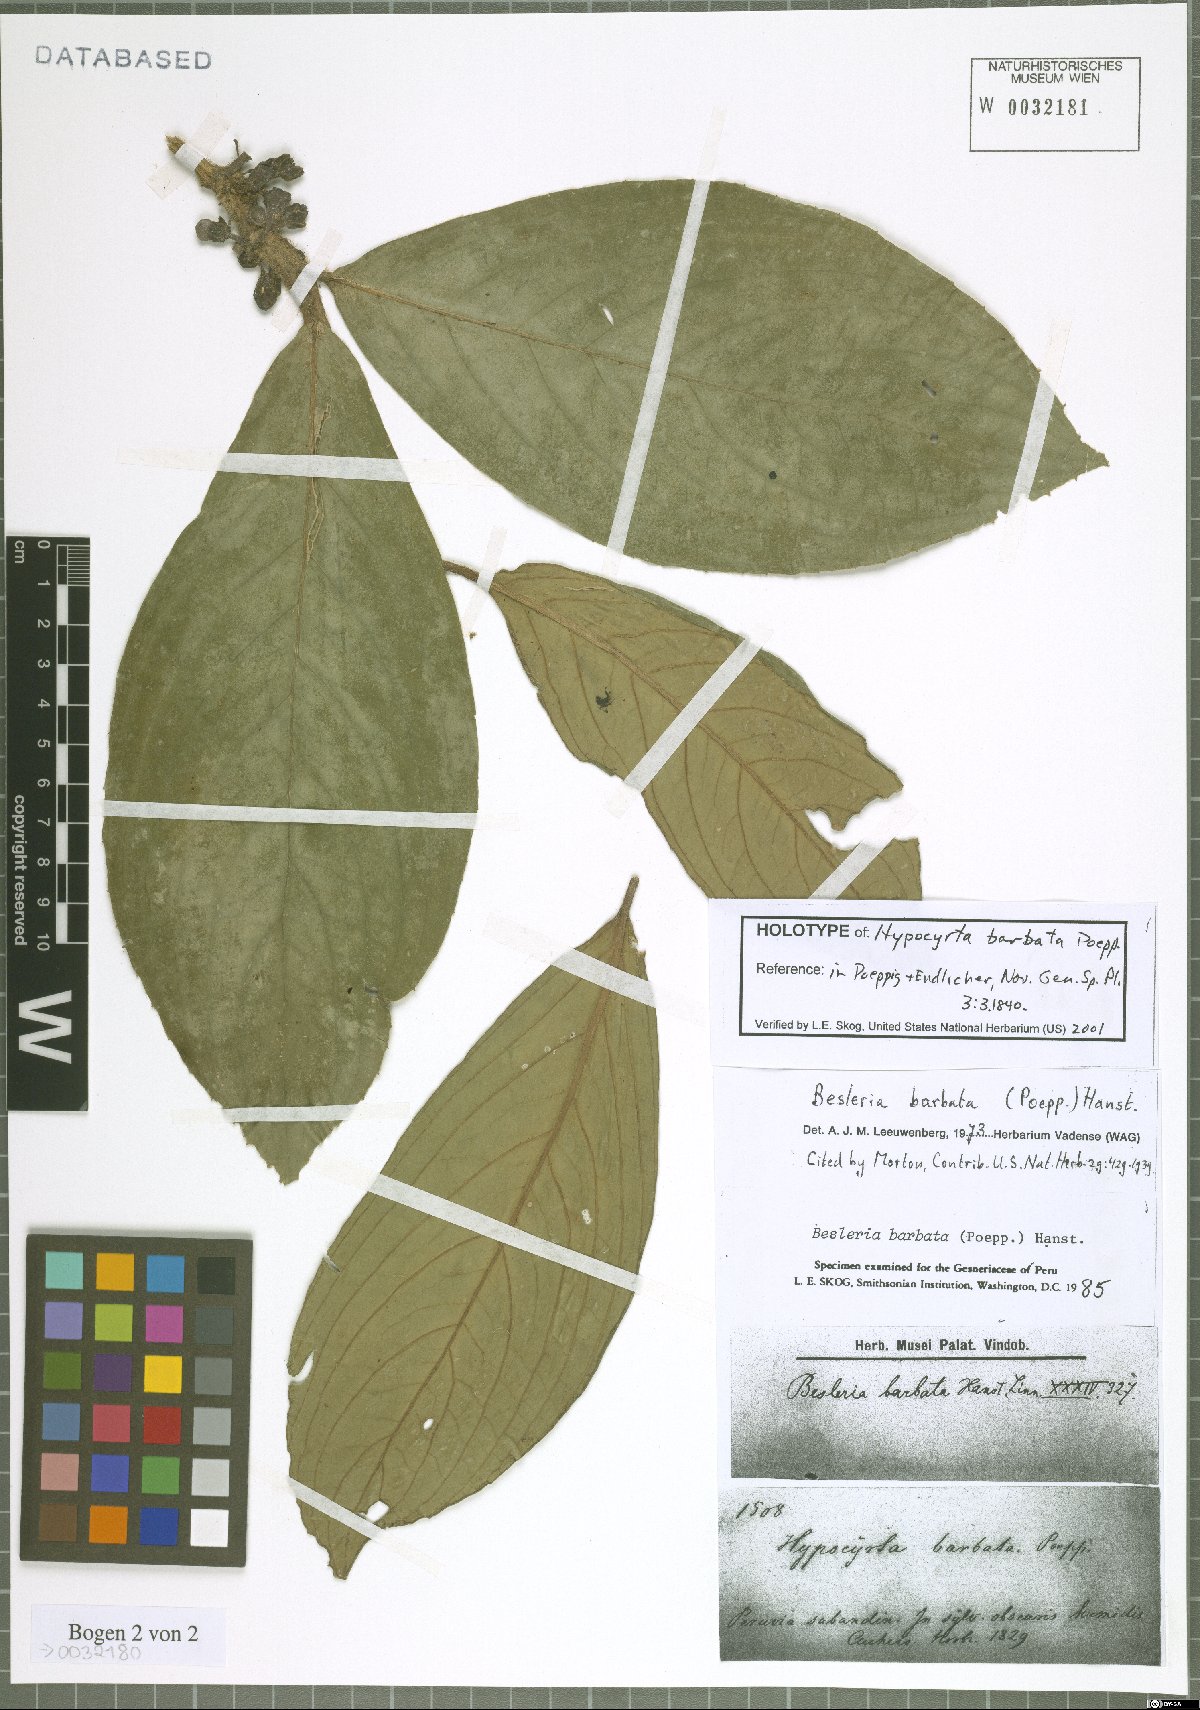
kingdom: Plantae
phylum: Tracheophyta
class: Magnoliopsida
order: Lamiales
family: Gesneriaceae
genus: Besleria
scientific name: Besleria barbata
